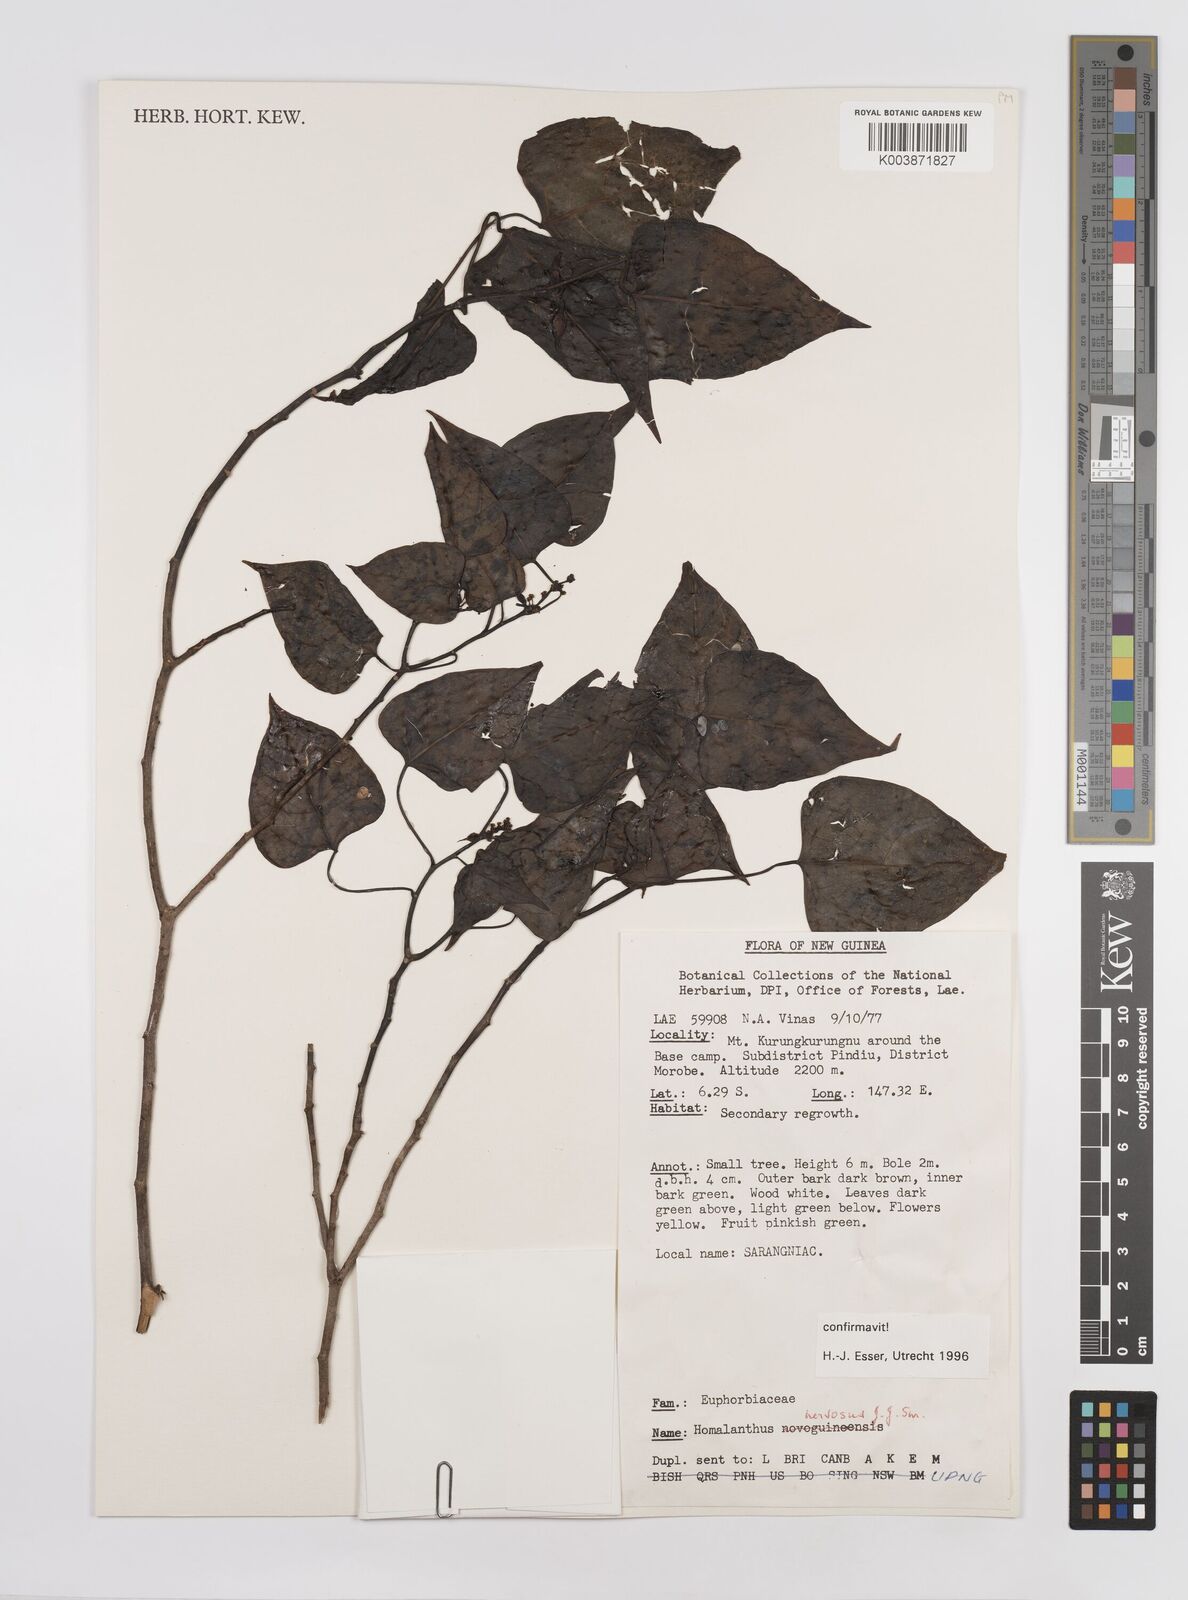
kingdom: Plantae
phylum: Tracheophyta
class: Magnoliopsida
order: Malpighiales
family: Euphorbiaceae
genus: Homalanthus
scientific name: Homalanthus nervosus
